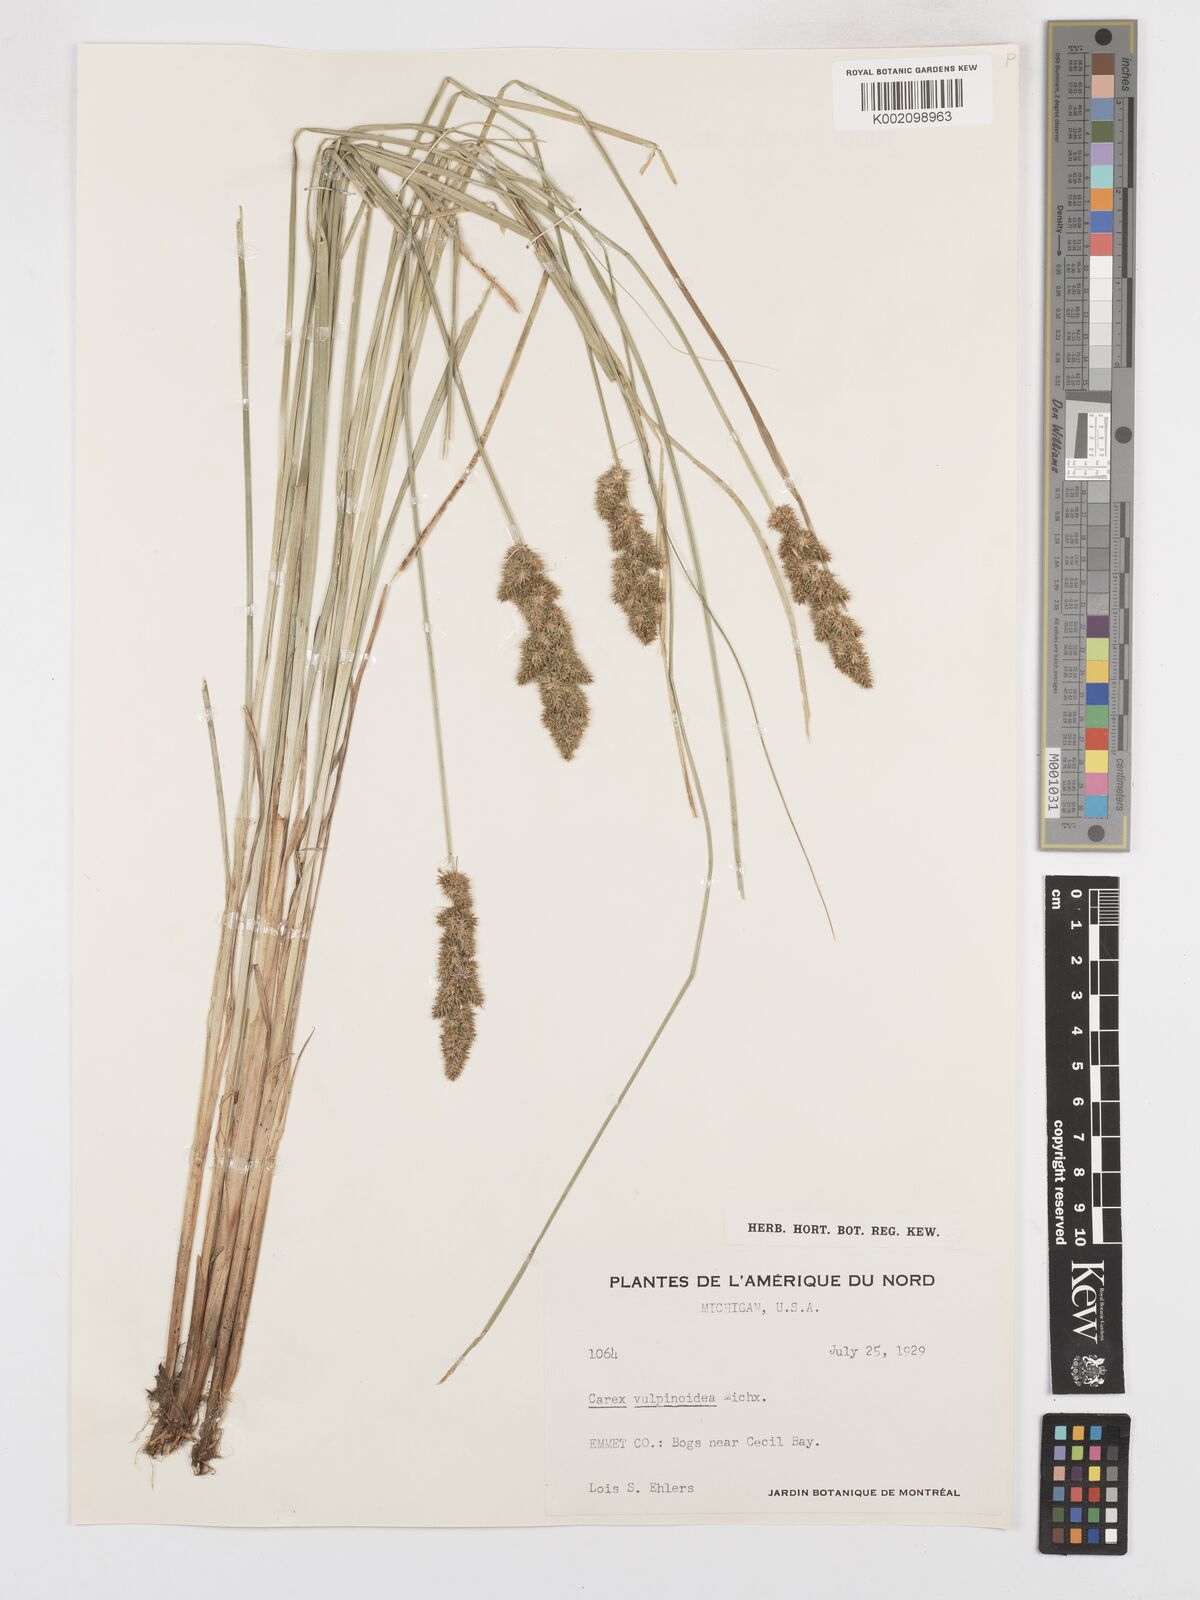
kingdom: Plantae
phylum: Tracheophyta
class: Liliopsida
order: Poales
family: Cyperaceae
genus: Carex
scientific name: Carex vulpinoidea
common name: American fox-sedge
